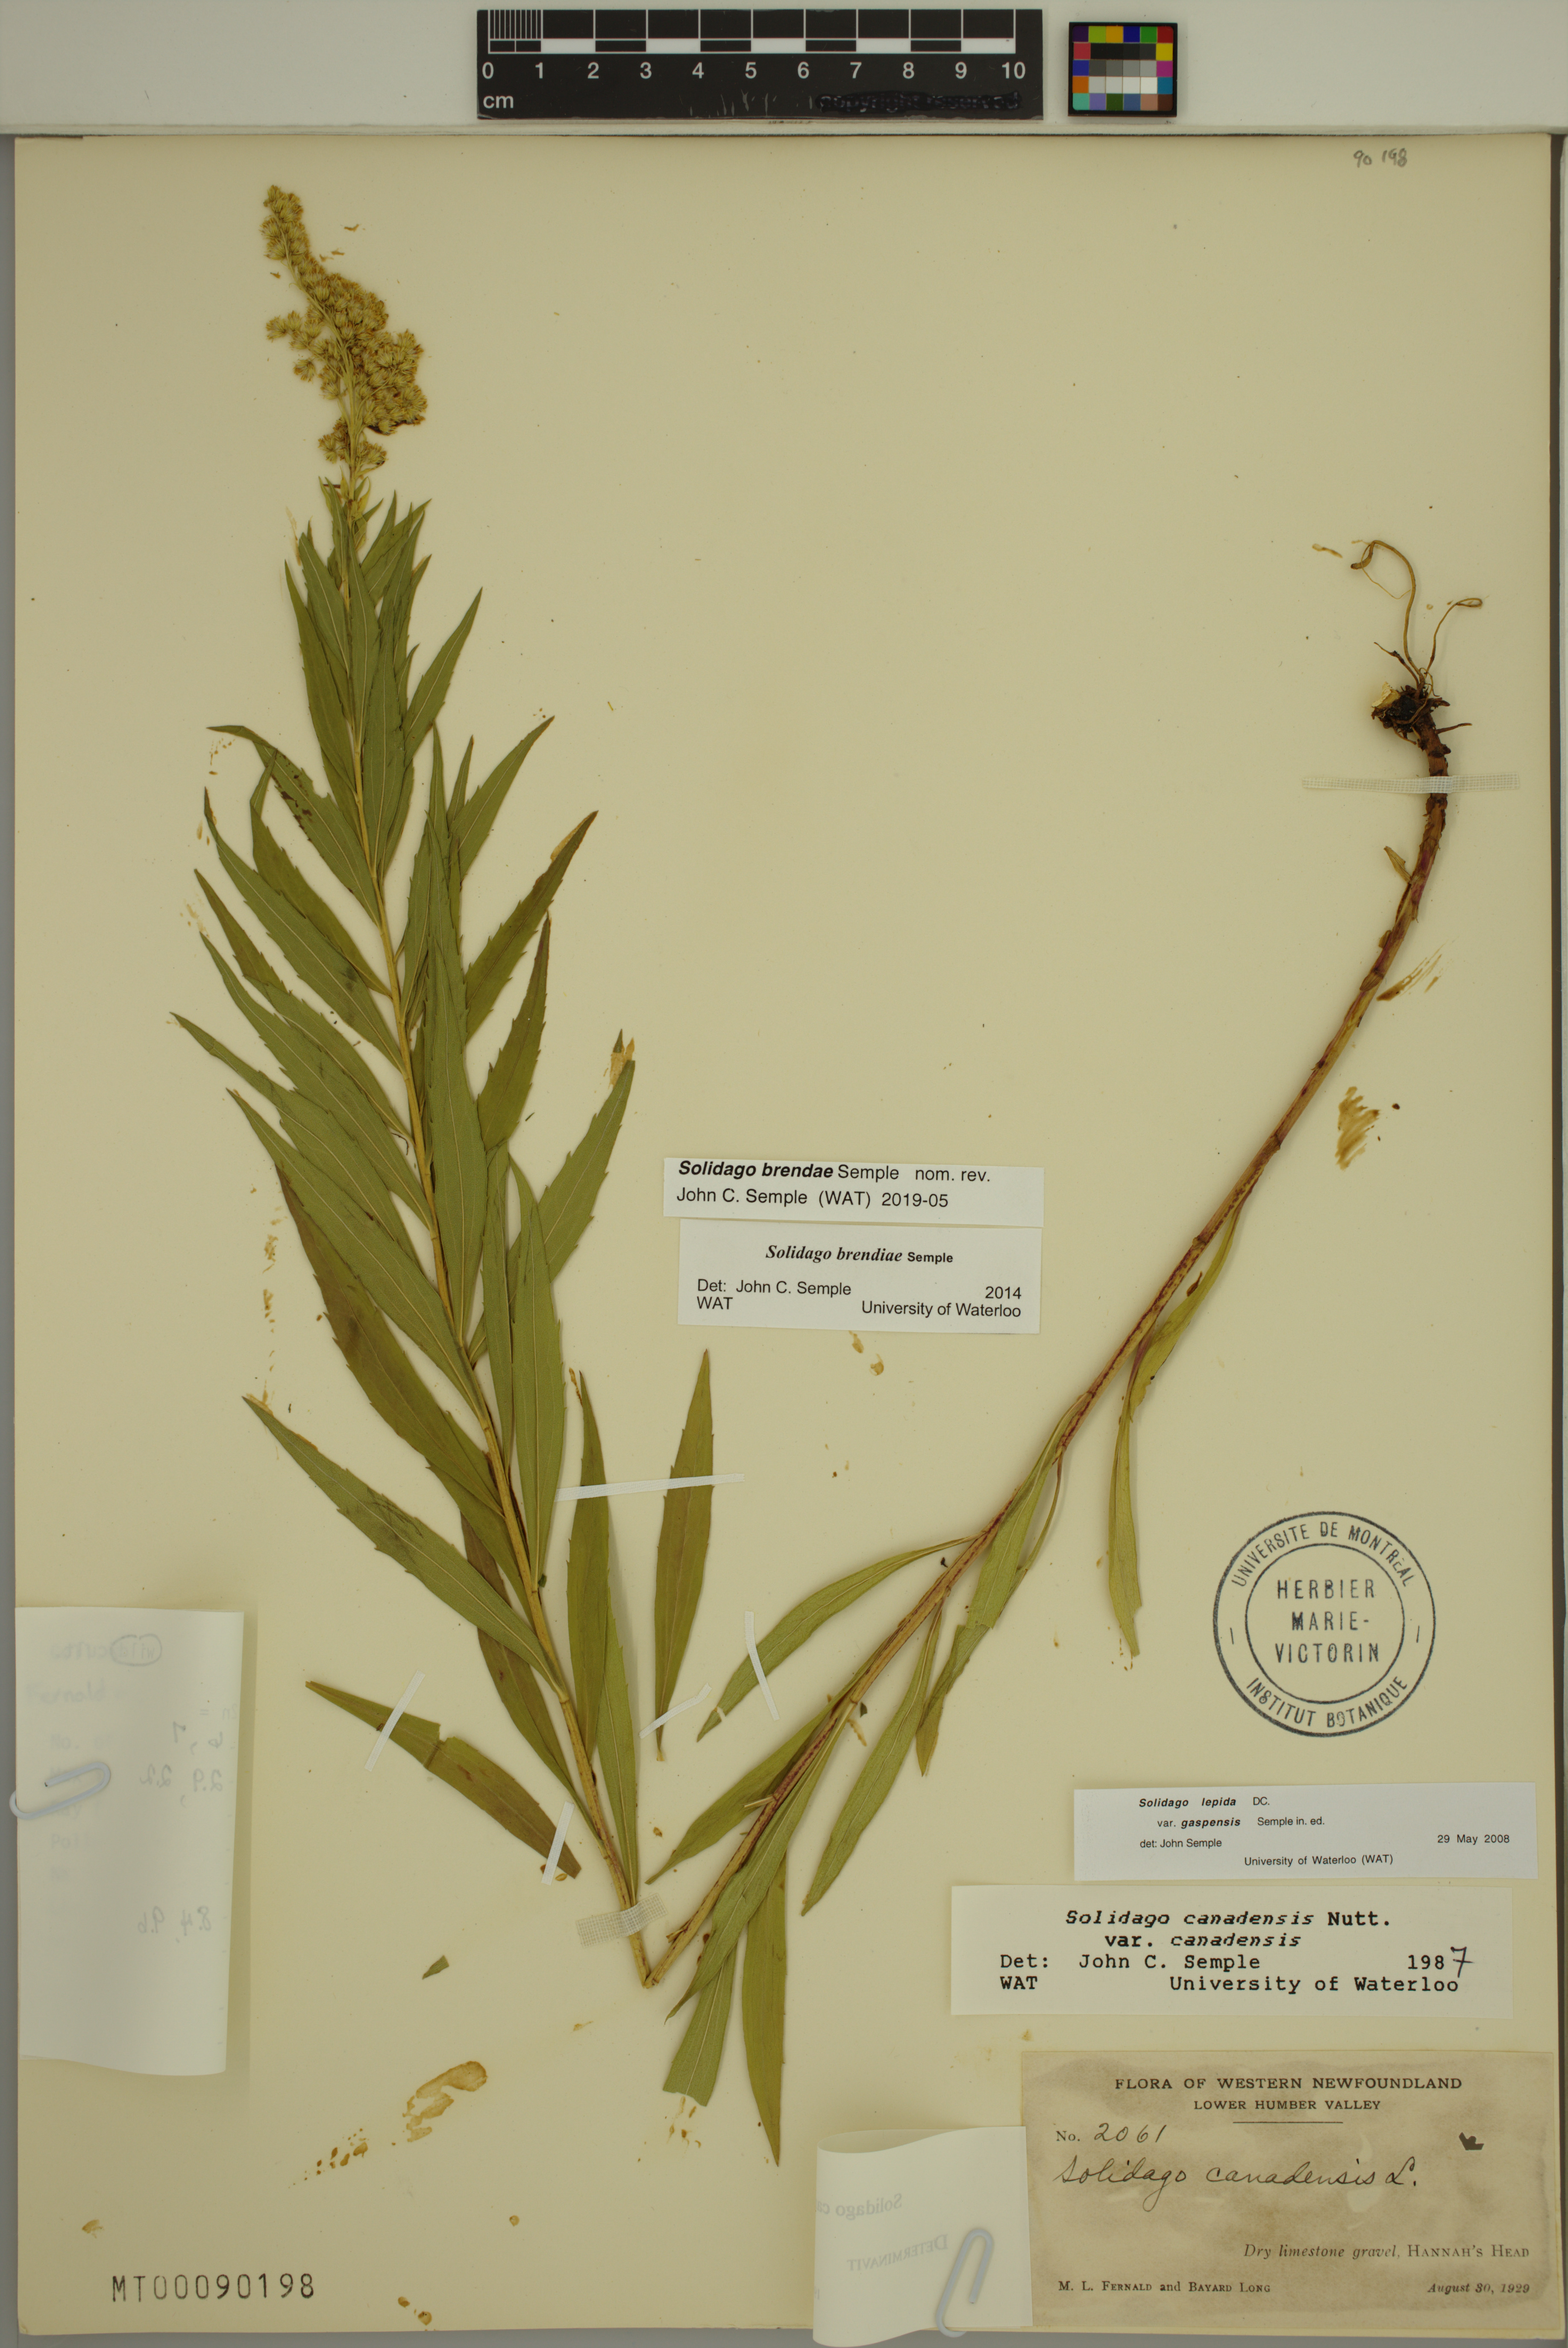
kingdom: Plantae
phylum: Tracheophyta
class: Magnoliopsida
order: Asterales
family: Asteraceae
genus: Solidago
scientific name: Solidago brendae
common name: Brenda's goldenrod
